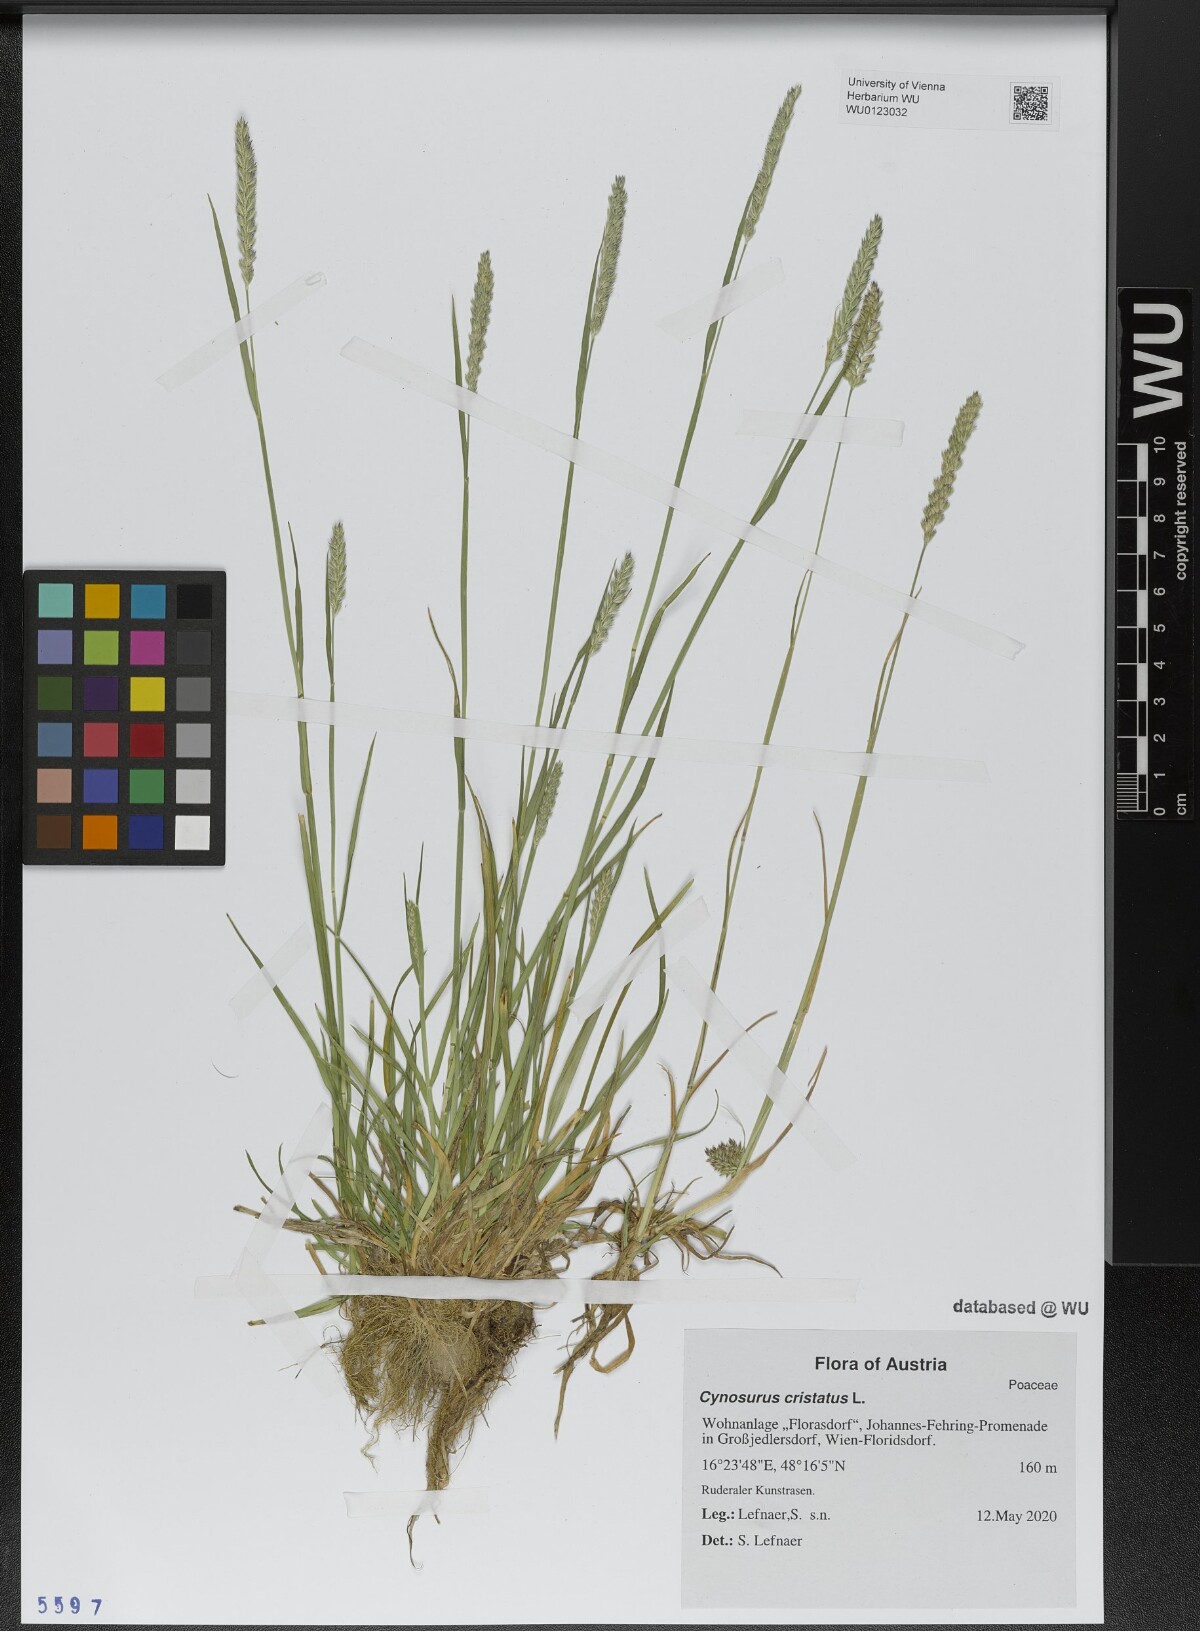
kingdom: Plantae
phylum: Tracheophyta
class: Liliopsida
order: Poales
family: Poaceae
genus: Cynosurus
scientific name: Cynosurus cristatus
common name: Crested dog's-tail
